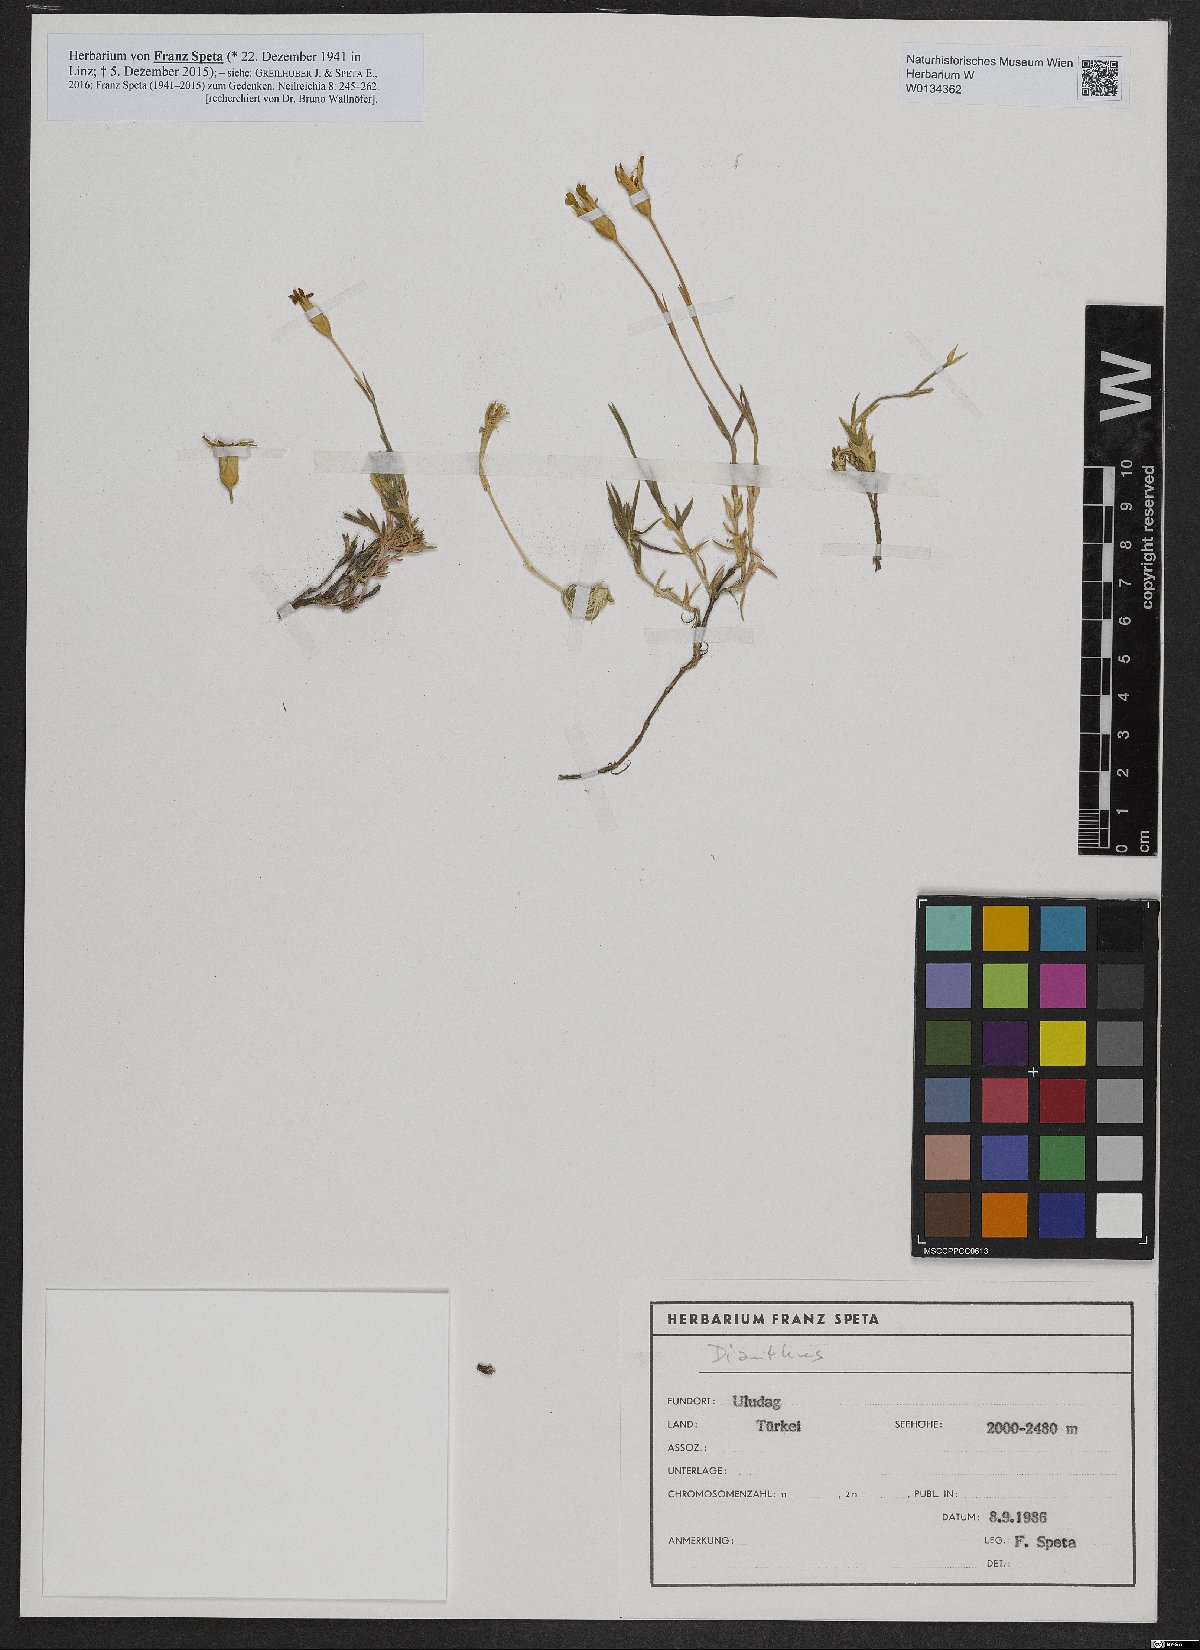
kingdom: Plantae
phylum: Tracheophyta
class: Magnoliopsida
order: Caryophyllales
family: Caryophyllaceae
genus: Dianthus
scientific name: Dianthus
